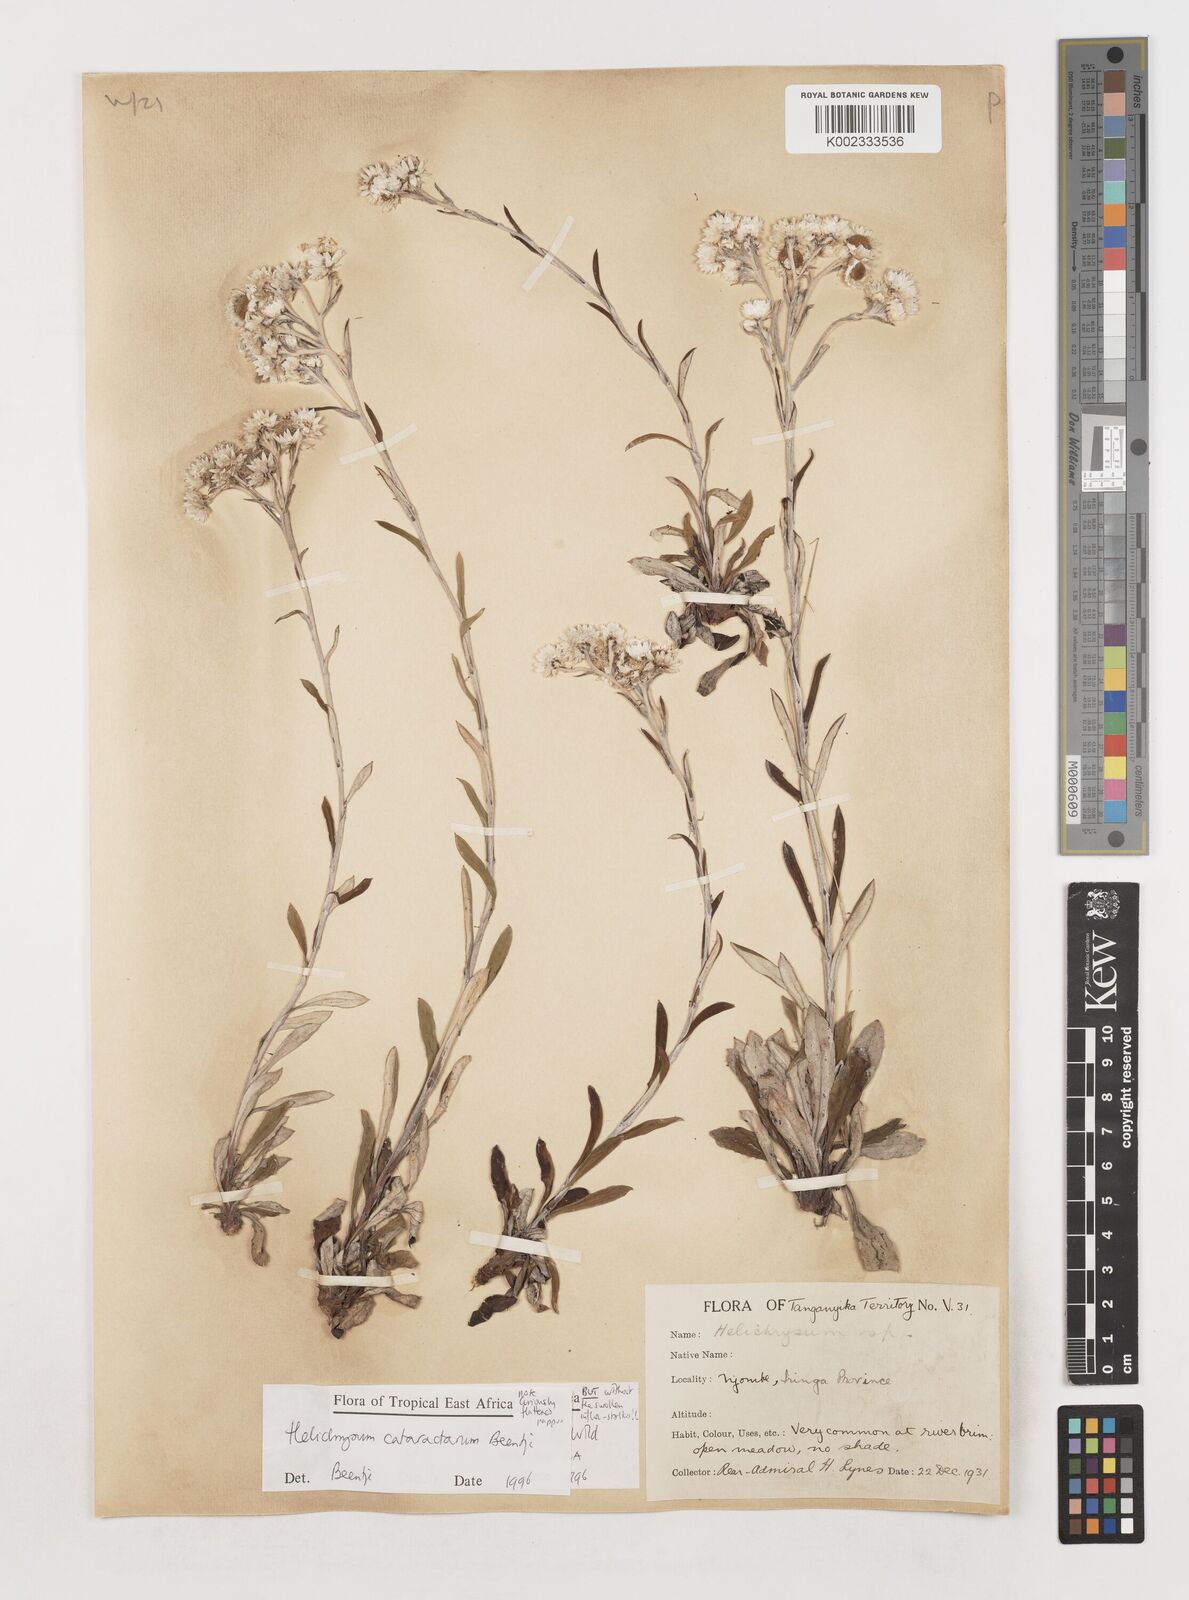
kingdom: Plantae
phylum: Tracheophyta
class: Magnoliopsida
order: Asterales
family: Asteraceae
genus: Helichrysum
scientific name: Helichrysum cataractarum
